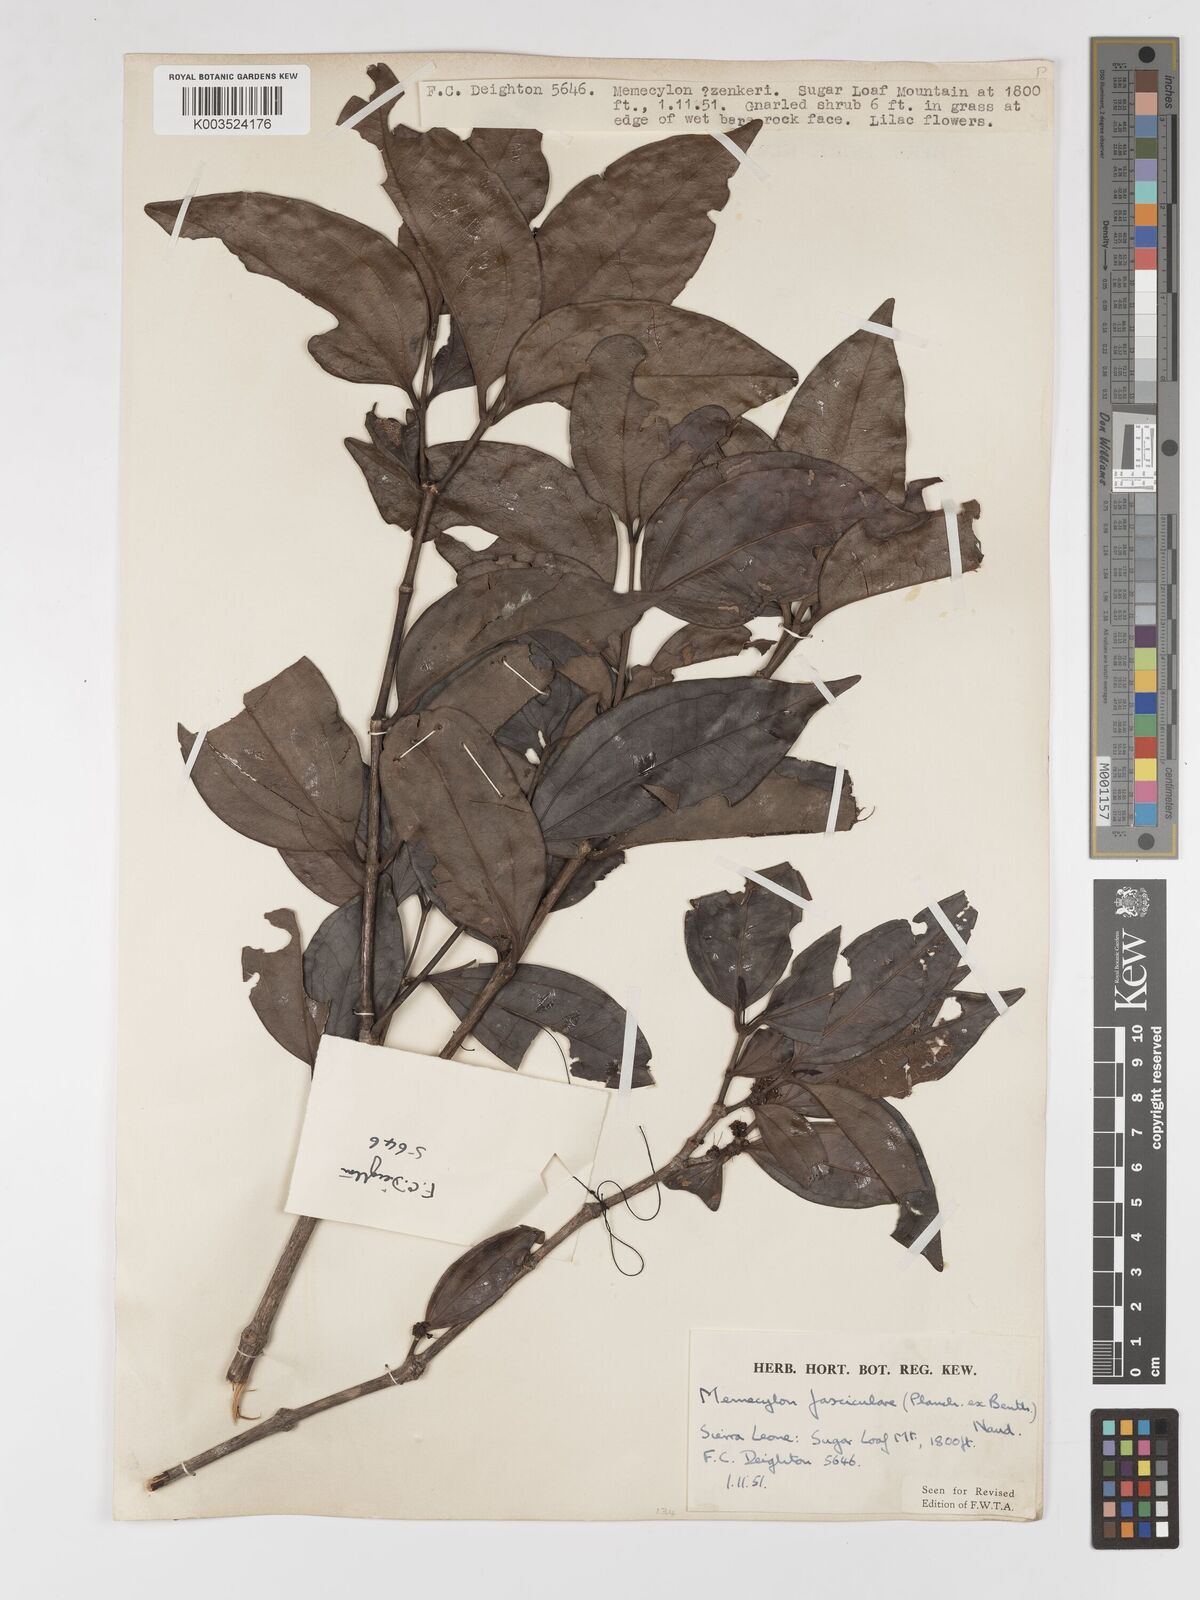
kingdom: Plantae
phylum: Tracheophyta
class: Magnoliopsida
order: Myrtales
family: Melastomataceae
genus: Warneckea
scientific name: Warneckea fascicularis
